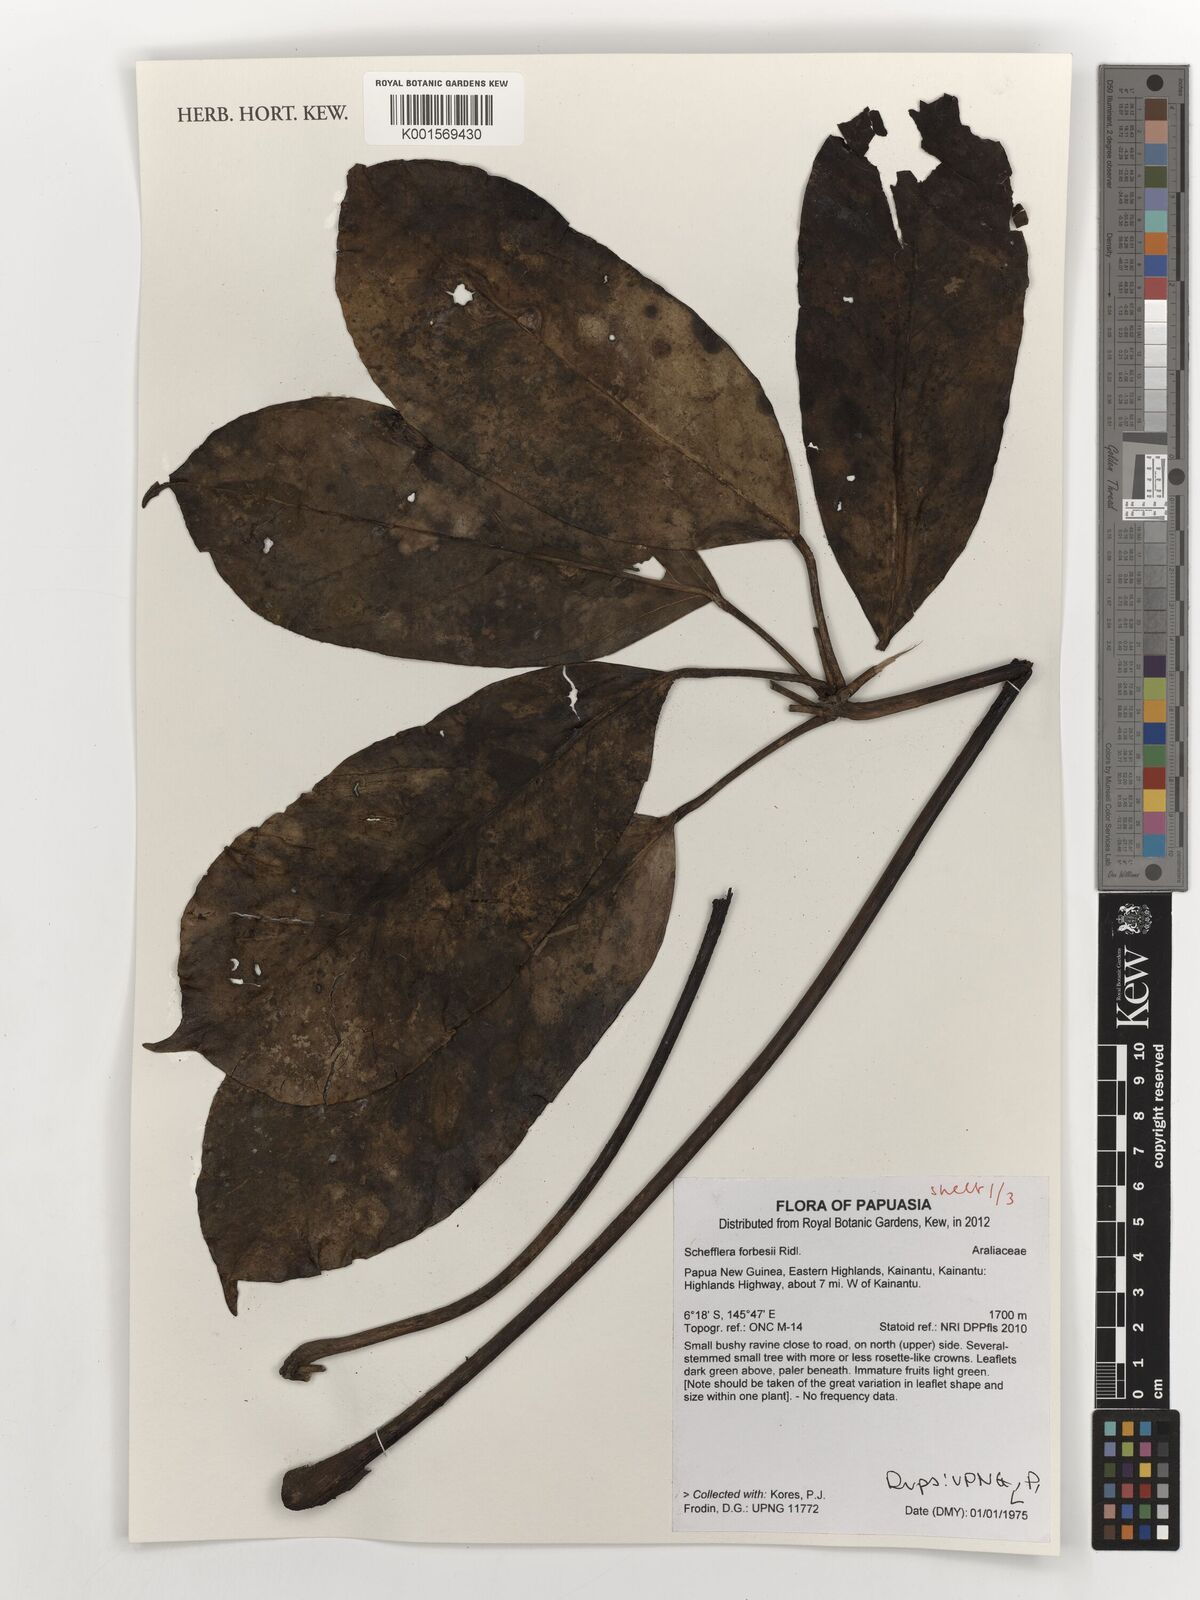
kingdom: Plantae
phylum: Tracheophyta
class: Magnoliopsida
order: Apiales
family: Araliaceae
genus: Heptapleurum
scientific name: Heptapleurum forbesii
